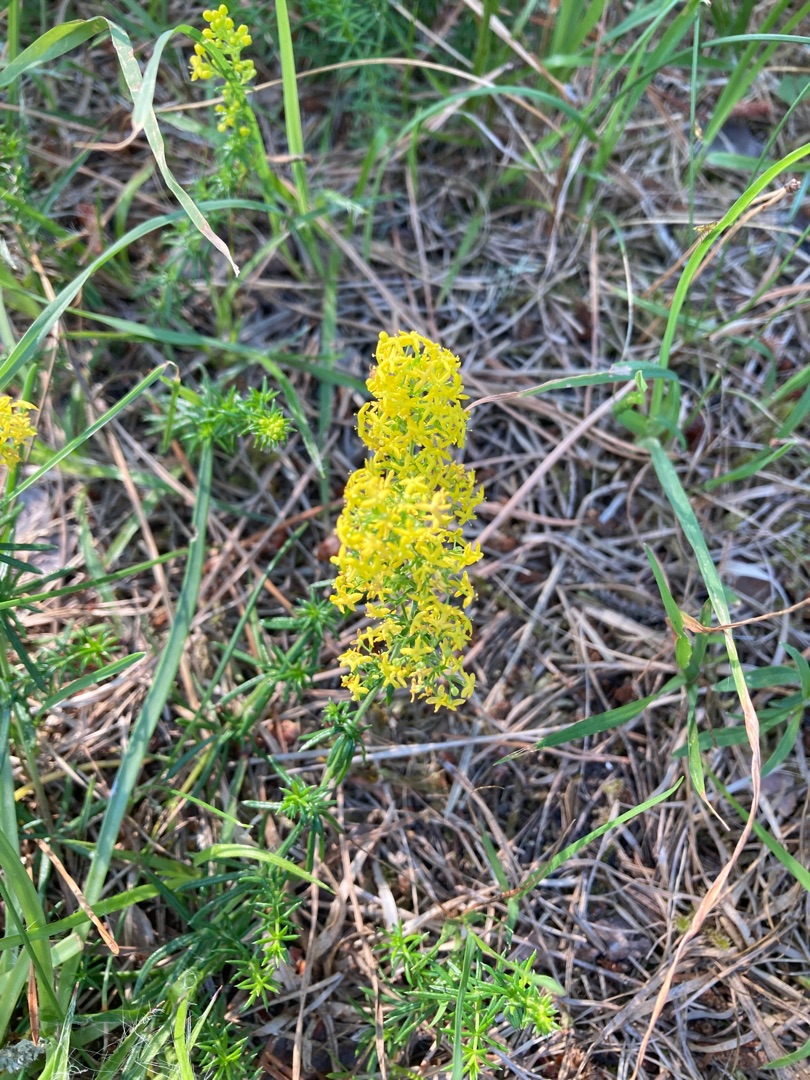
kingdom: Plantae
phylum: Tracheophyta
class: Magnoliopsida
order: Gentianales
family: Rubiaceae
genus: Galium
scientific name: Galium verum
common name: Gul snerre
